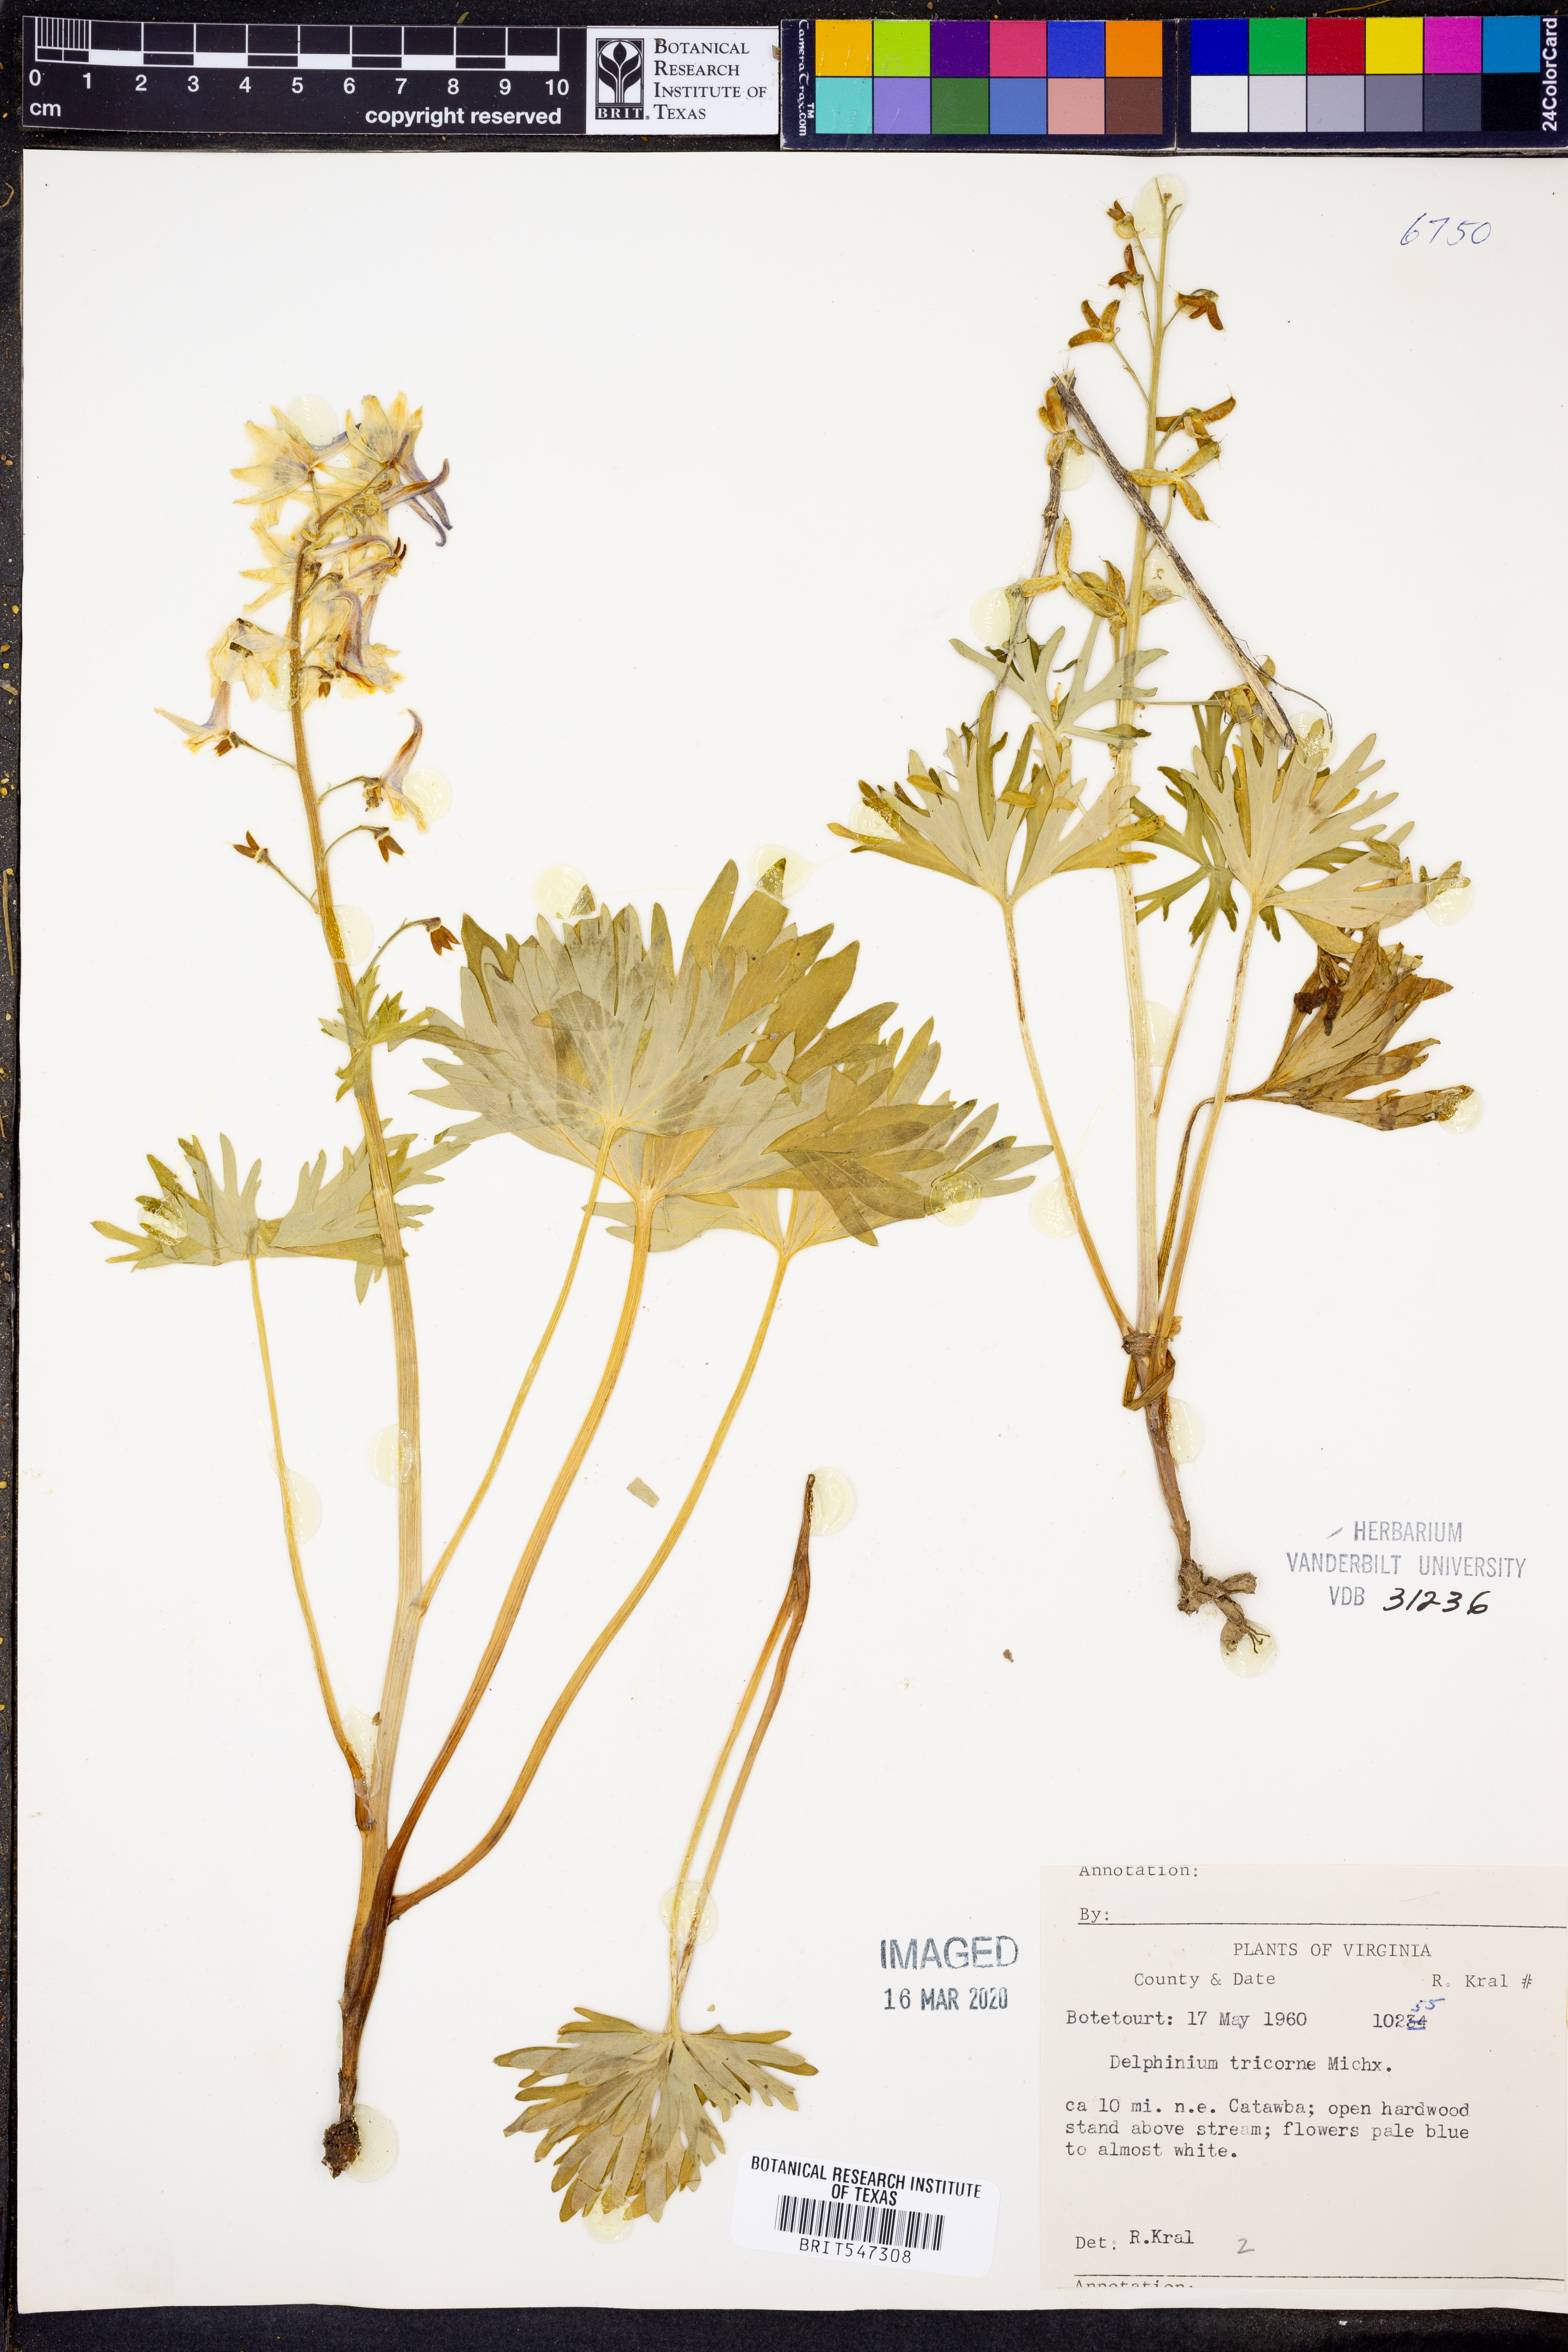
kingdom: Plantae
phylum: Tracheophyta
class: Magnoliopsida
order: Ranunculales
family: Ranunculaceae
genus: Delphinium
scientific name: Delphinium tricorne
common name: Dwarf larkspur
